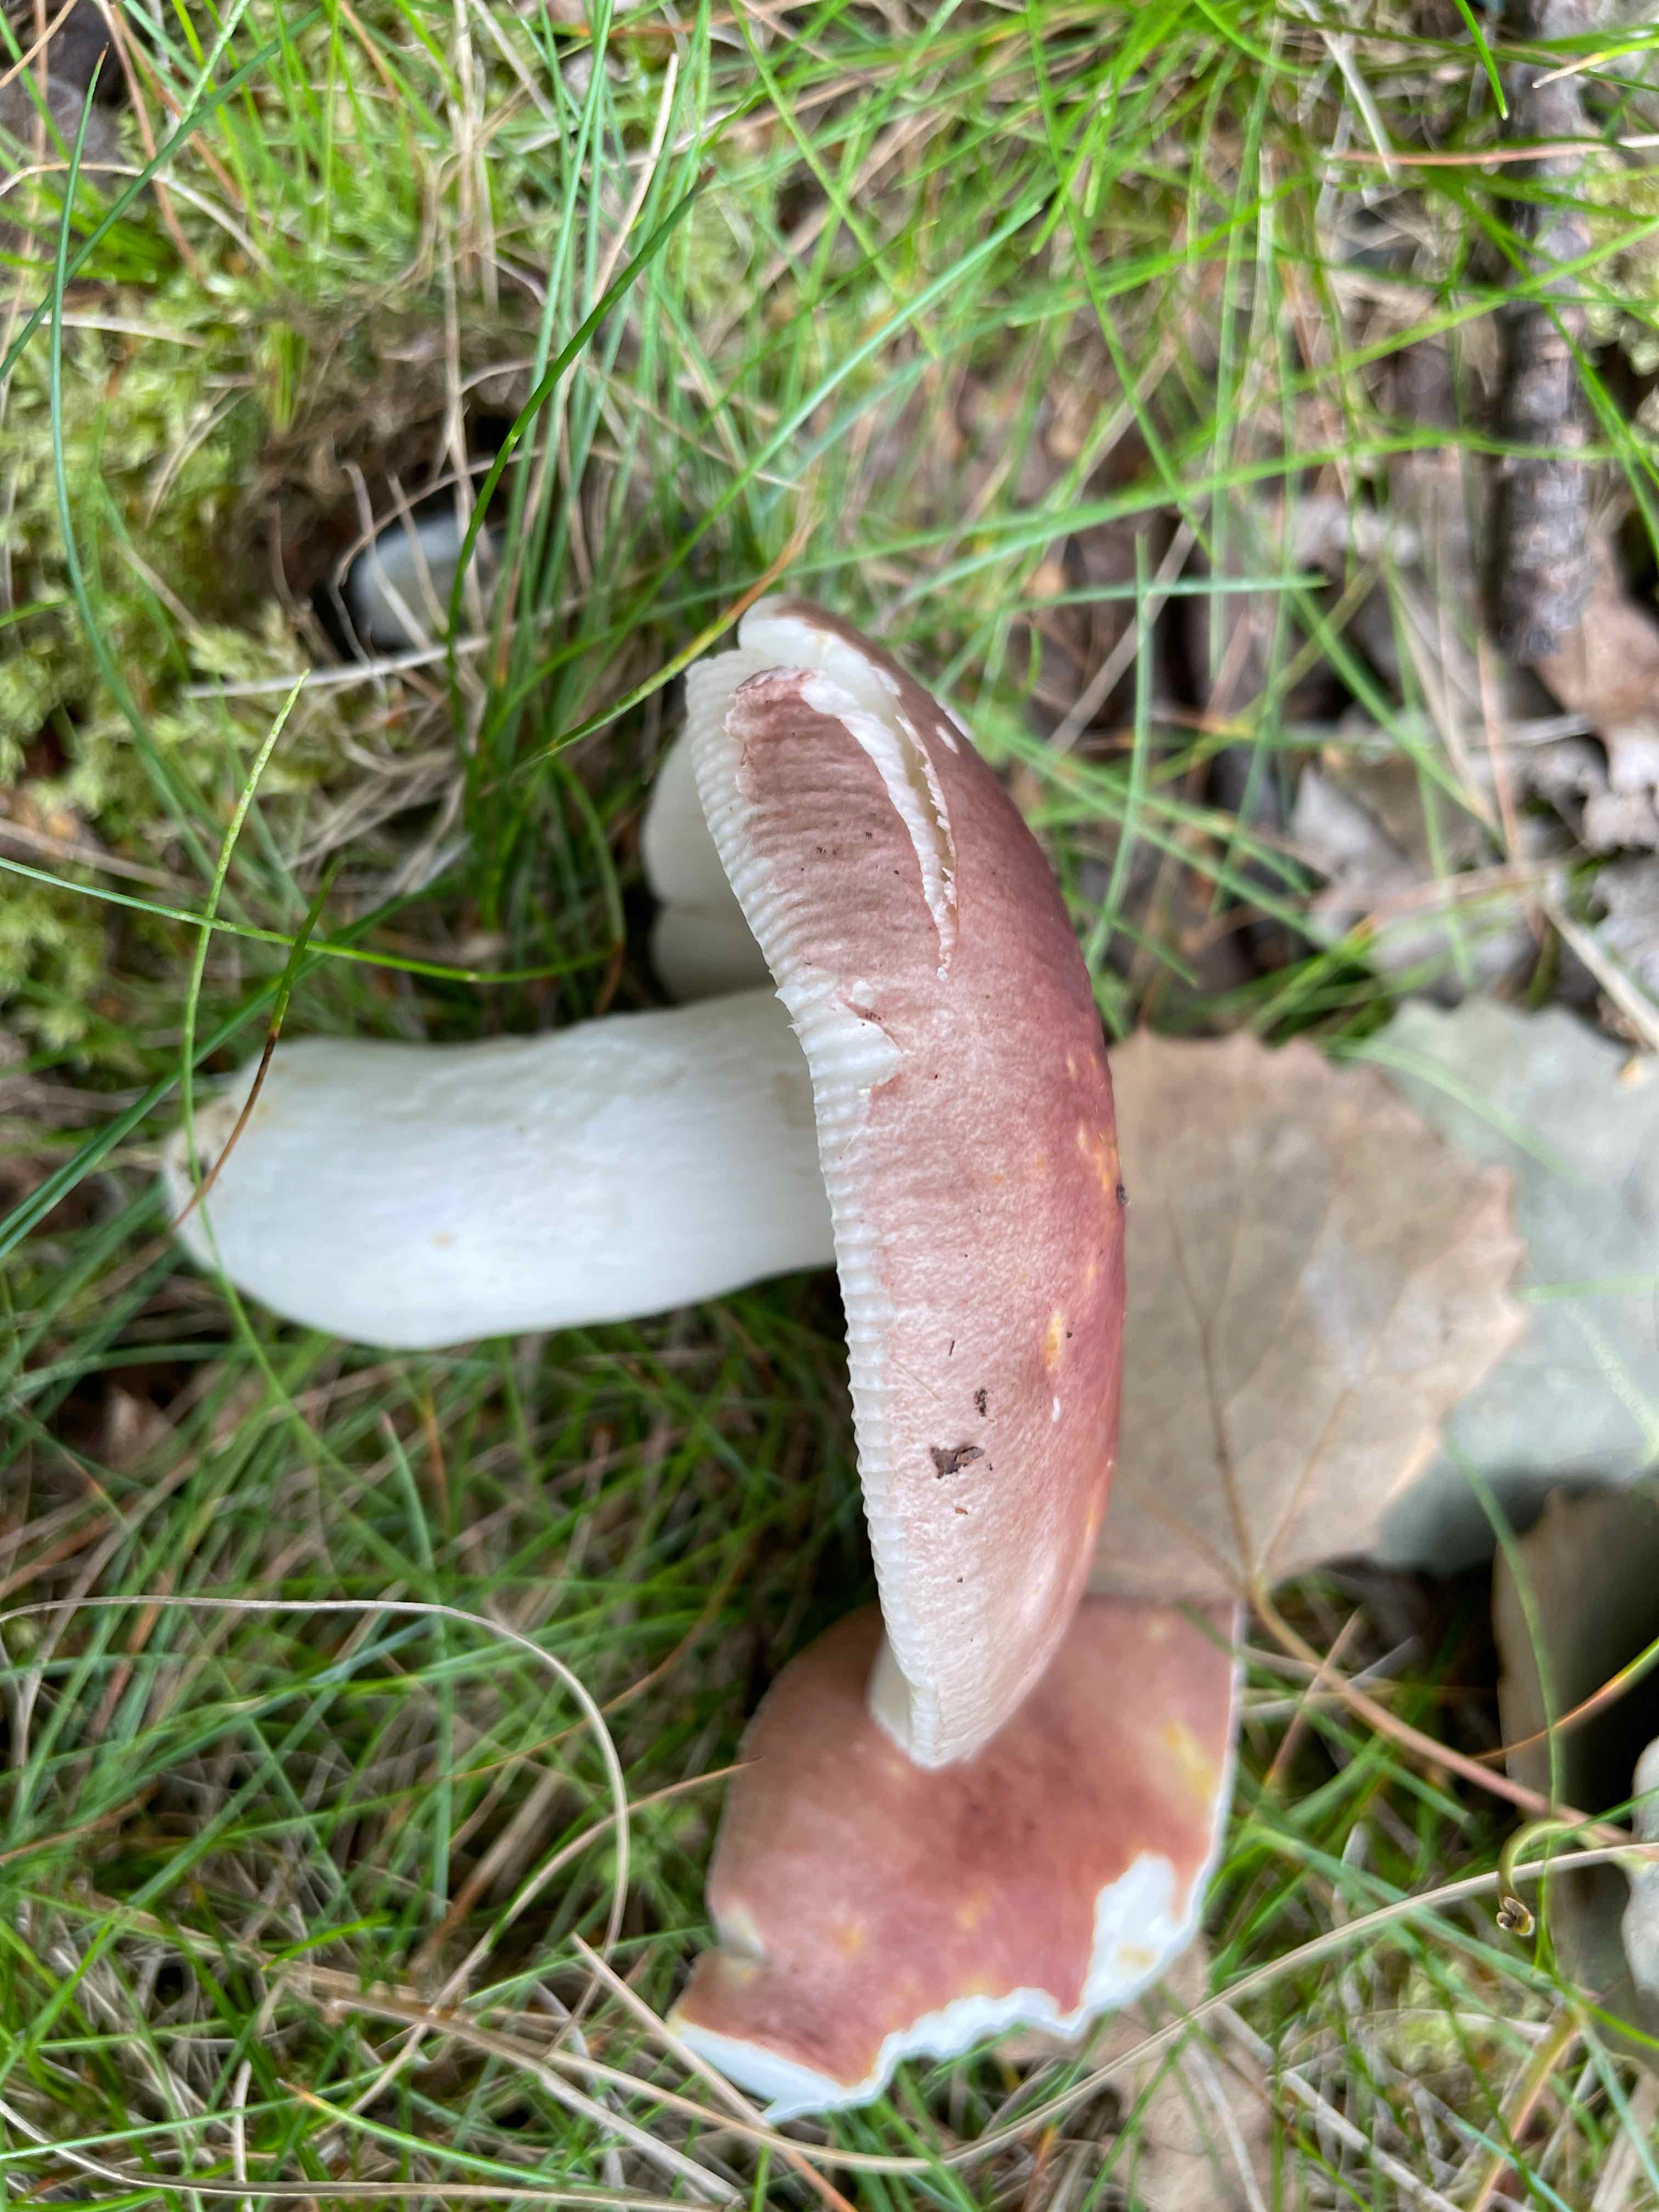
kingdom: Fungi
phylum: Basidiomycota
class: Agaricomycetes
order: Russulales
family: Russulaceae
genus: Russula
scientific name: Russula vesca
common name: spiselig skørhat
